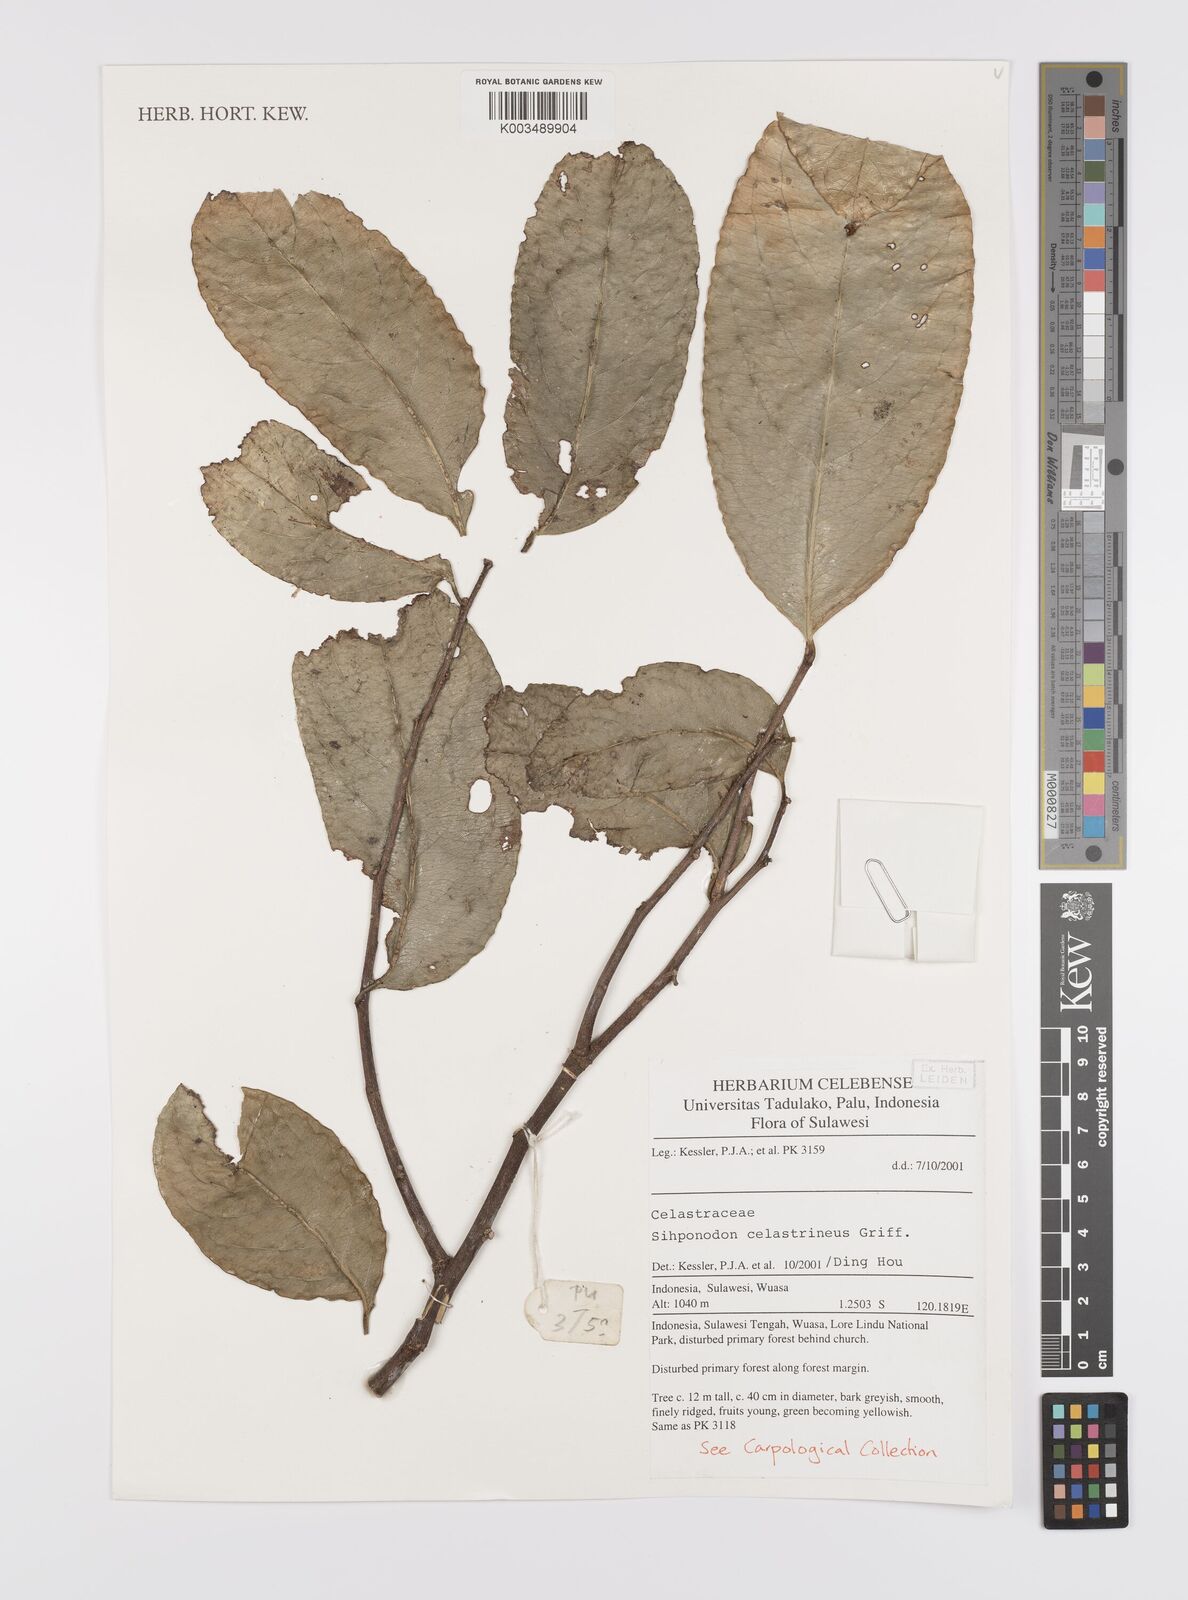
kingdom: Plantae
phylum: Tracheophyta
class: Magnoliopsida
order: Celastrales
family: Celastraceae
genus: Siphonodon
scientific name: Siphonodon celastrineus
